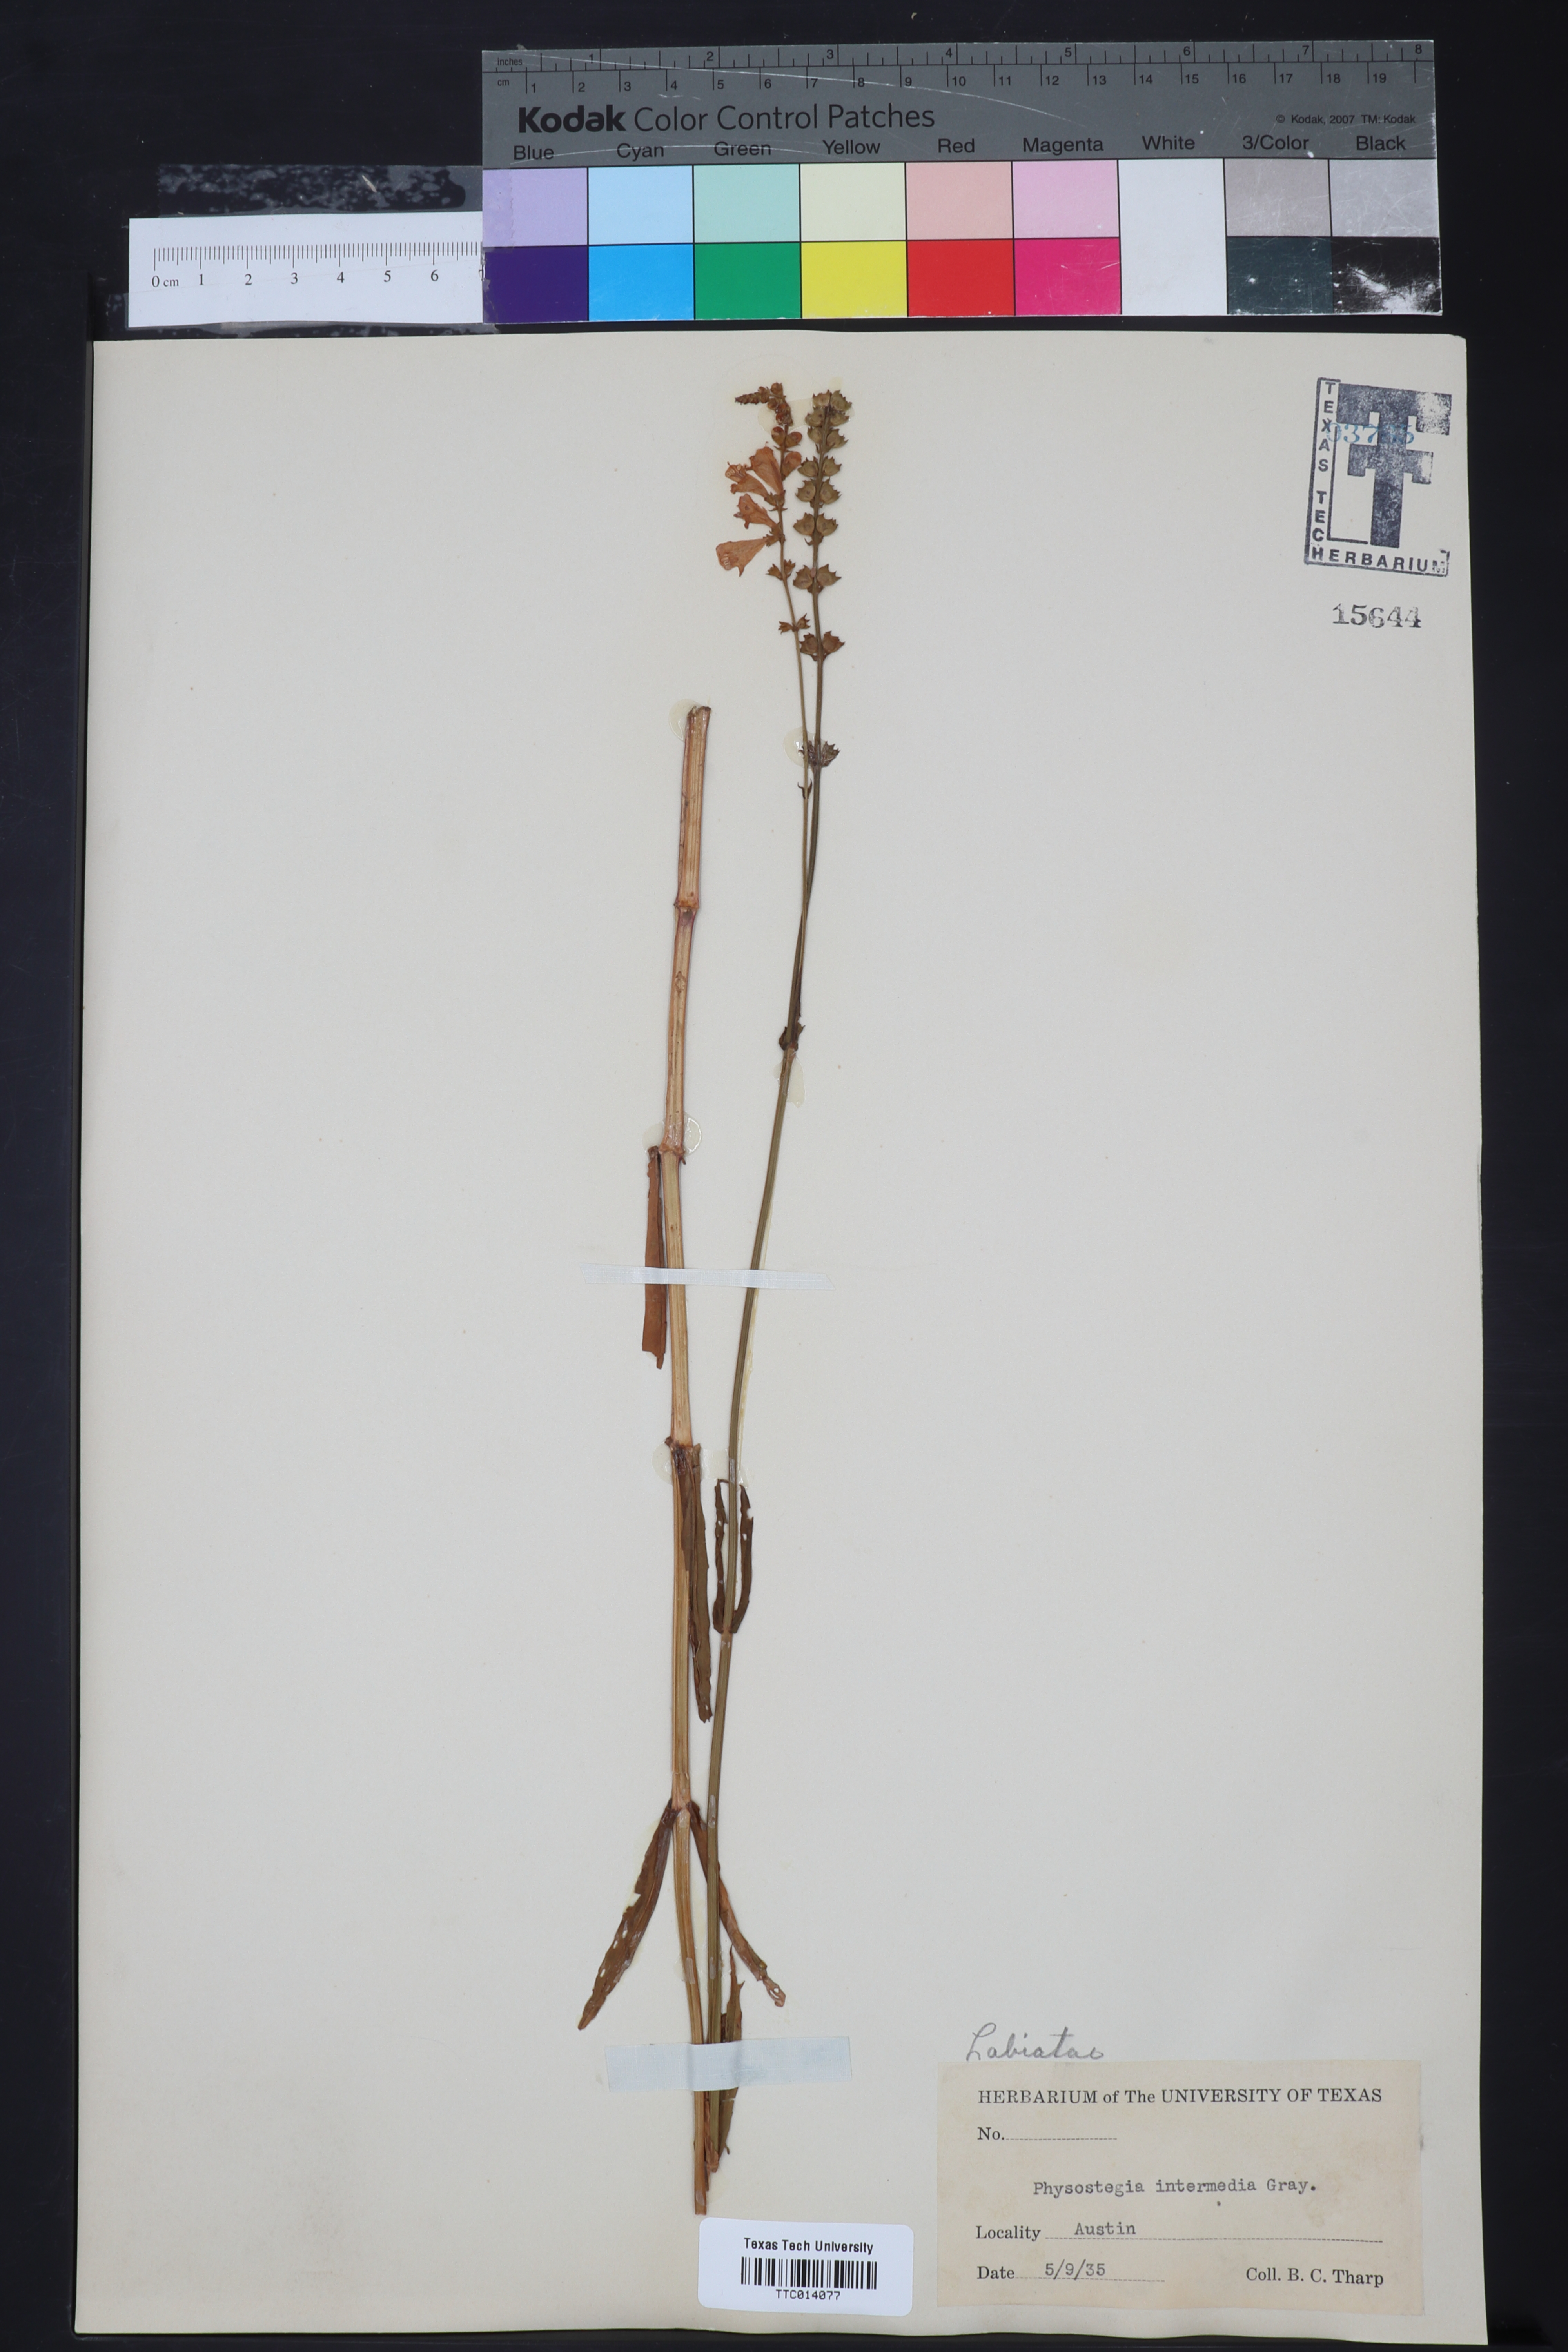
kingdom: Plantae
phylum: Tracheophyta
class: Magnoliopsida
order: Lamiales
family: Lamiaceae
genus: Physostegia
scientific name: Physostegia intermedia
